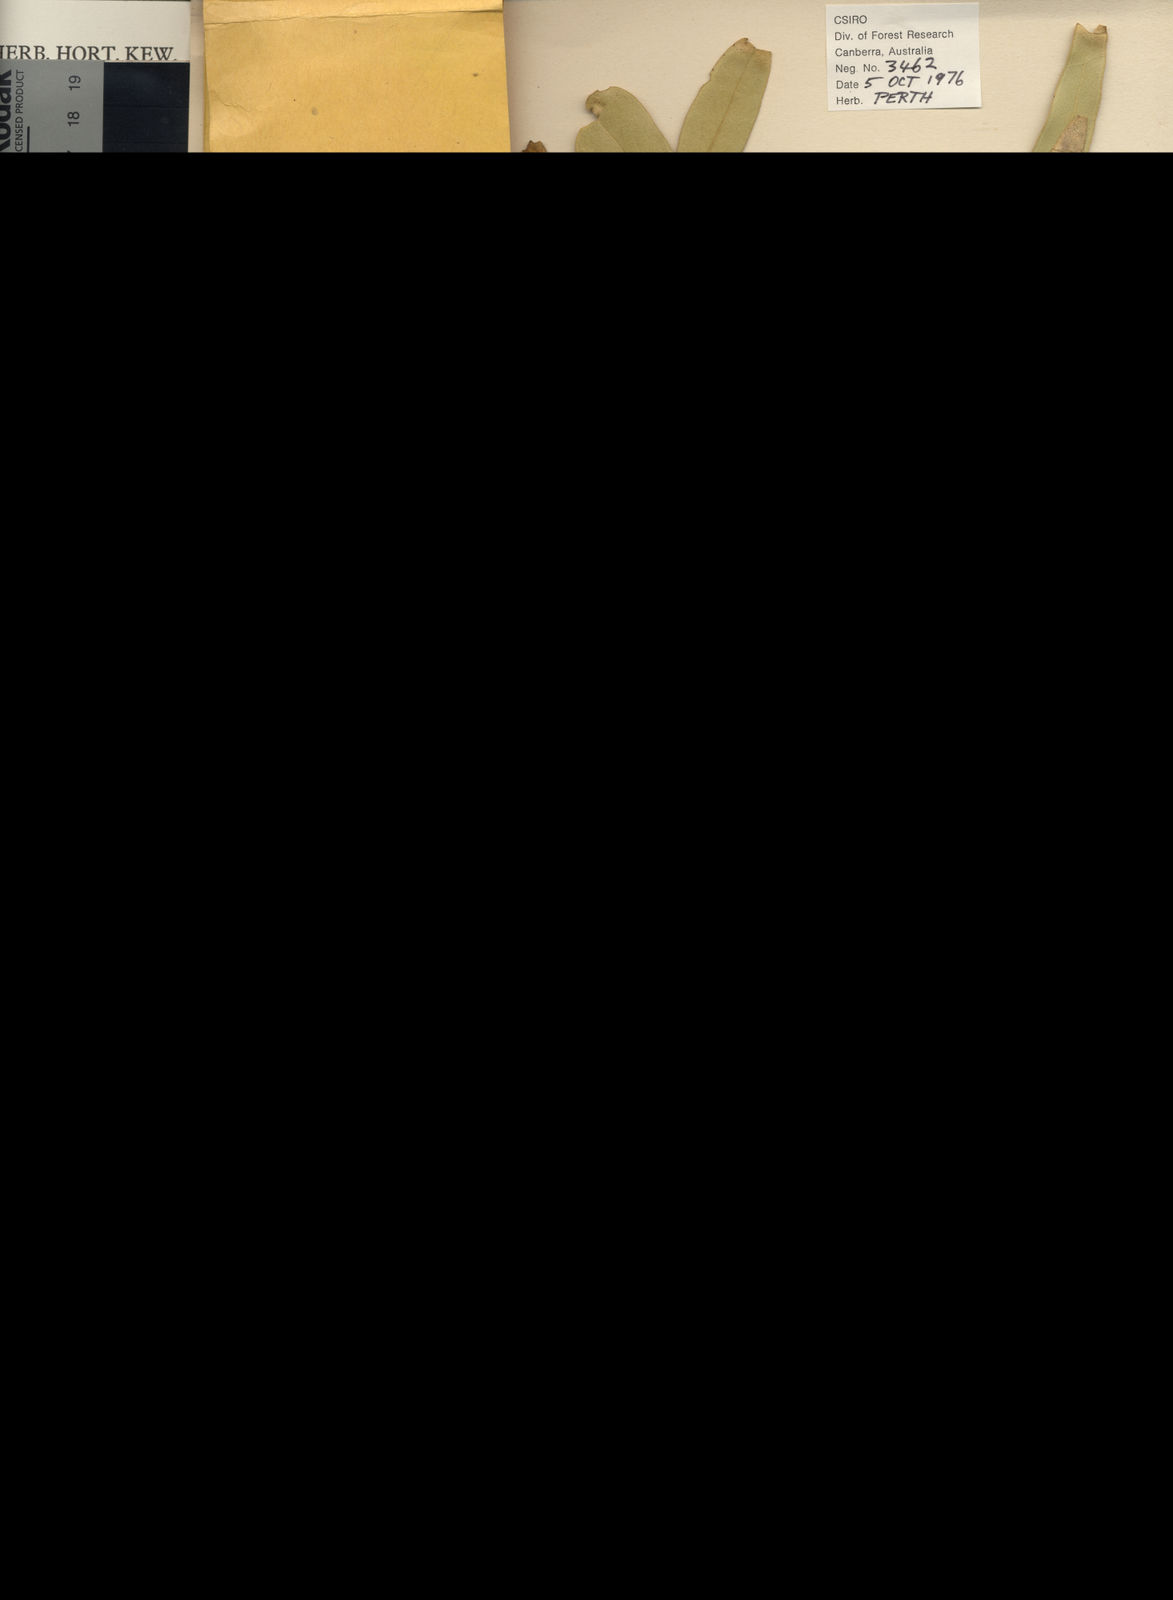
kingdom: Plantae
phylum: Tracheophyta
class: Magnoliopsida
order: Myrtales
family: Myrtaceae
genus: Eucalyptus
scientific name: Eucalyptus oraria
